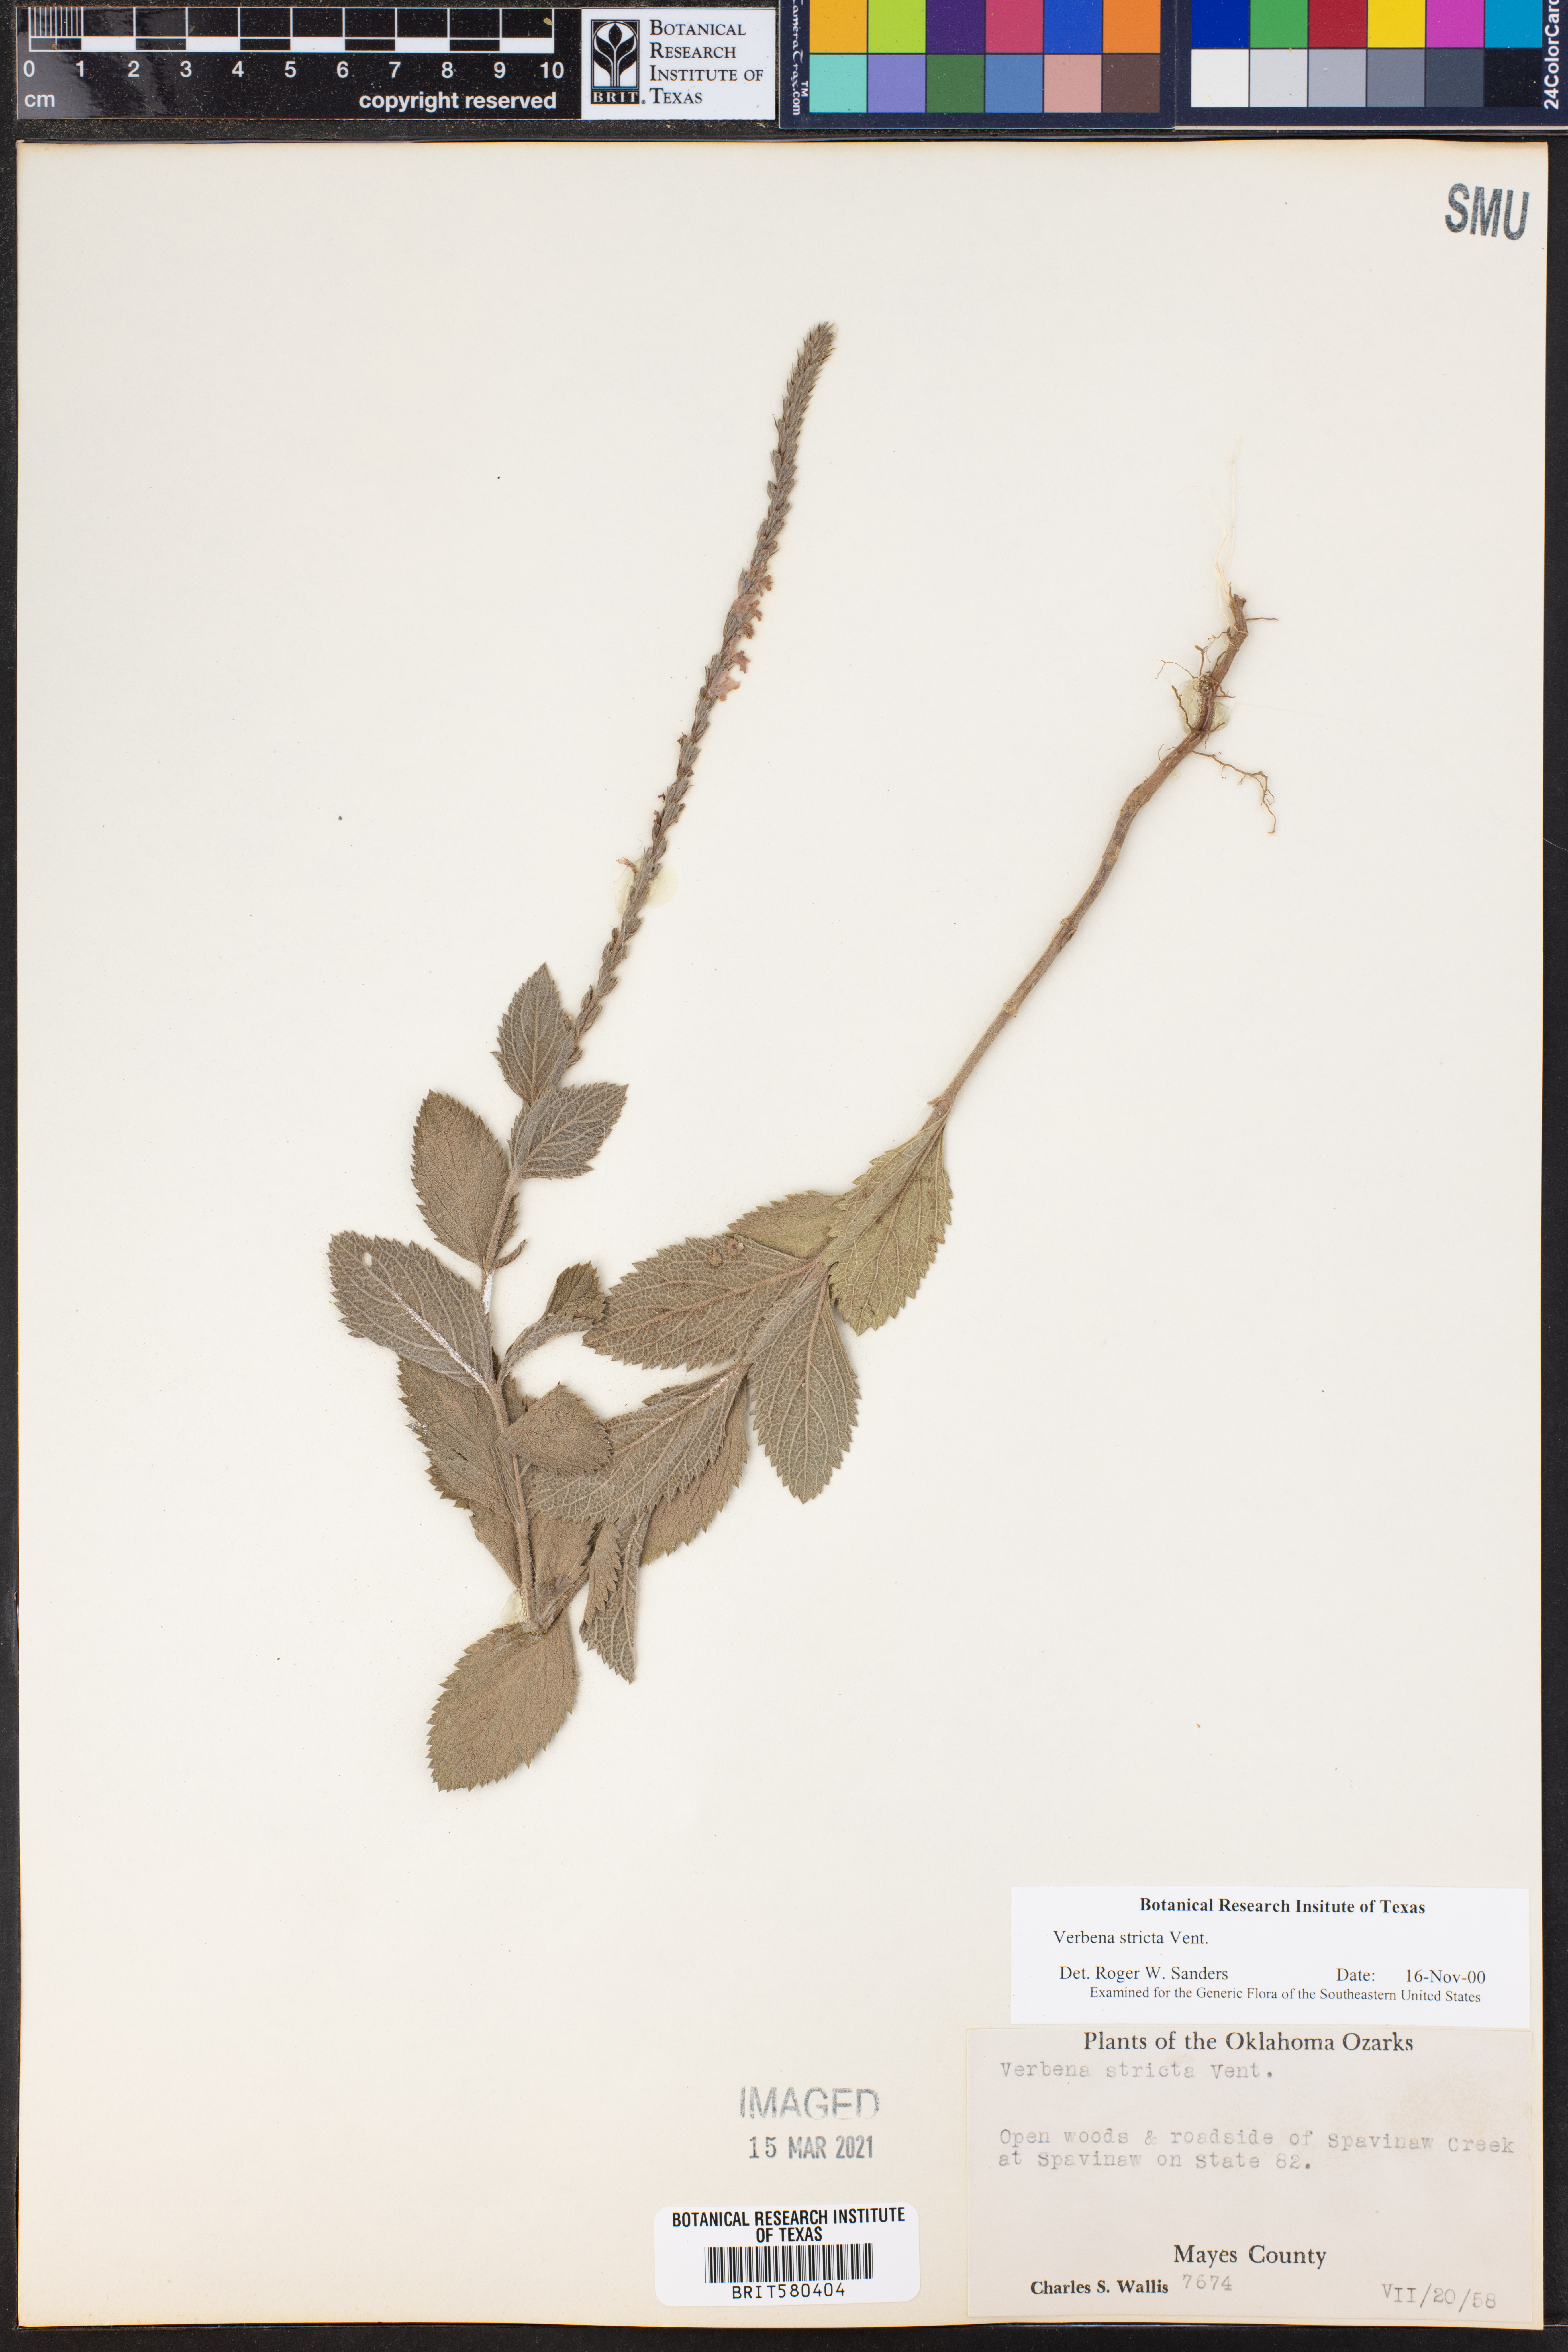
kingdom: Plantae
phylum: Tracheophyta
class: Magnoliopsida
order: Lamiales
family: Verbenaceae
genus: Verbena
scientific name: Verbena stricta
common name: Hoary vervain
